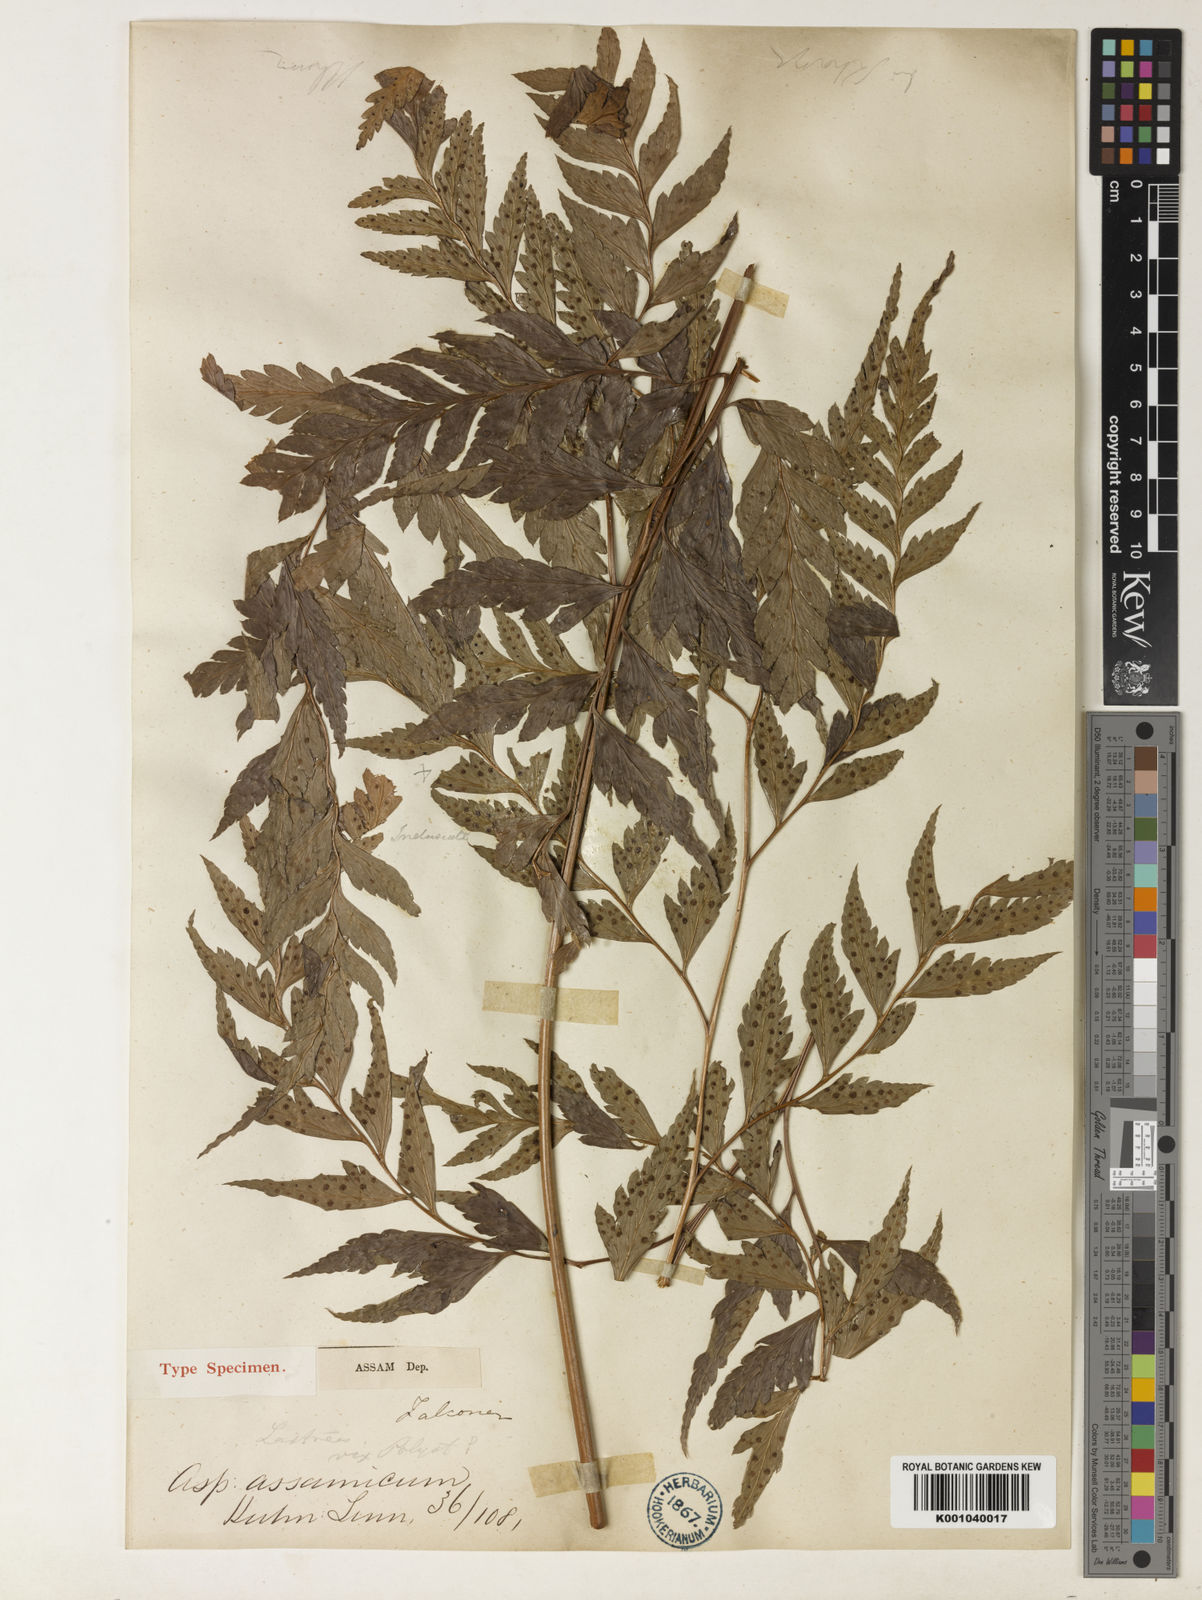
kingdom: Plantae
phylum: Tracheophyta
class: Polypodiopsida
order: Polypodiales
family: Dryopteridaceae
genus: Arachniodes
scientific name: Arachniodes assamica
